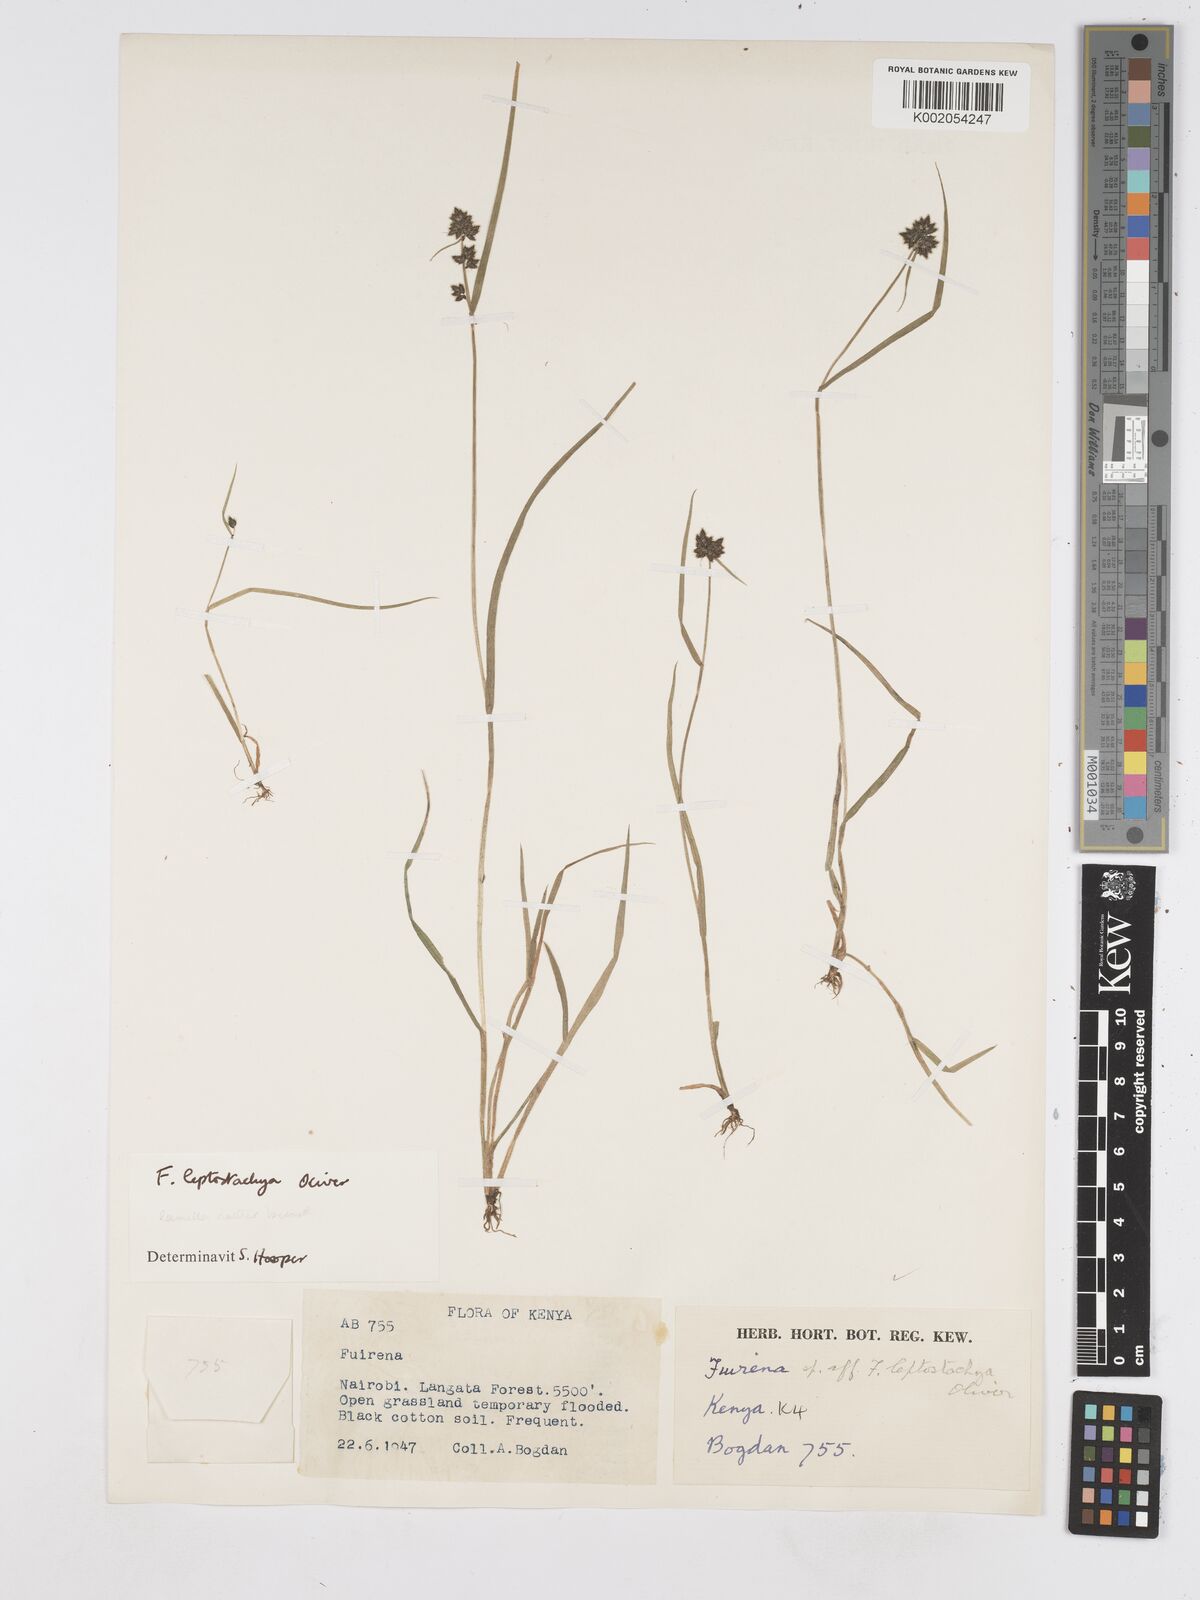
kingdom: Plantae
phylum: Tracheophyta
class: Liliopsida
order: Poales
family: Cyperaceae
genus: Fuirena
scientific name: Fuirena leptostachya
